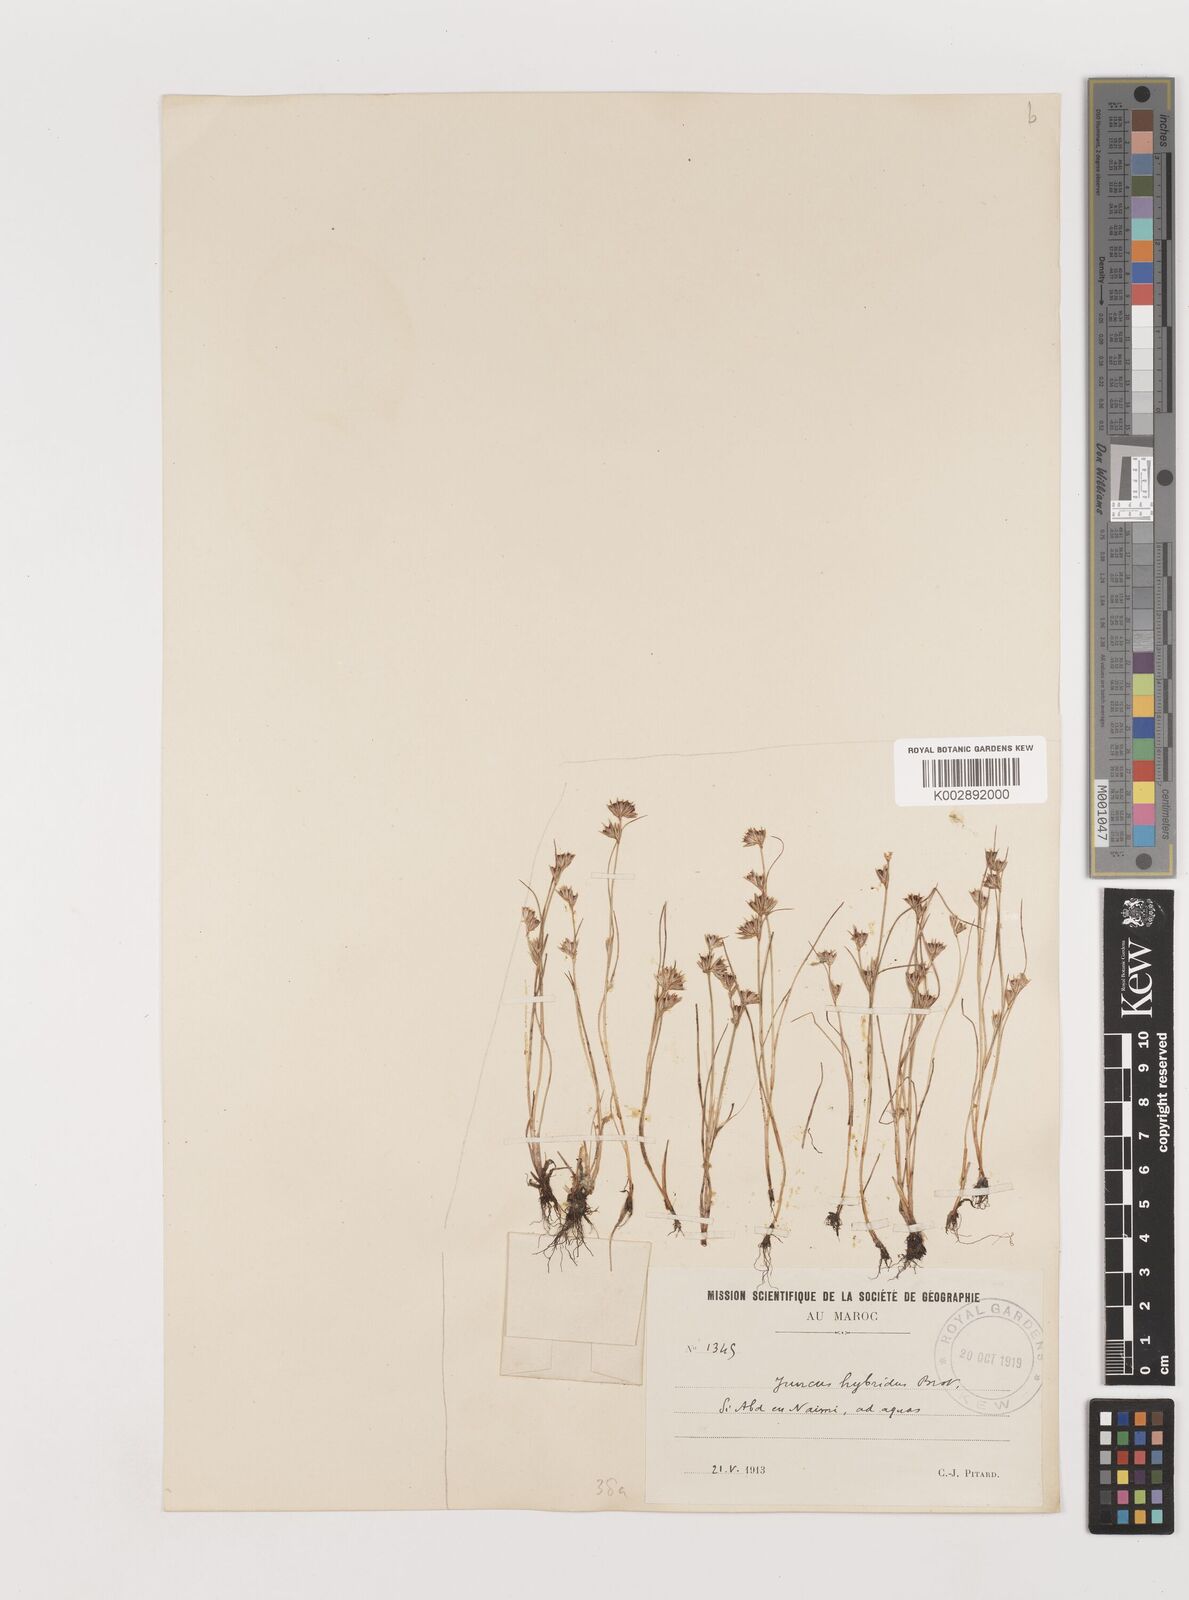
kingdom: Plantae
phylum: Tracheophyta
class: Liliopsida
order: Poales
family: Juncaceae
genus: Juncus
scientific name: Juncus hybridus
